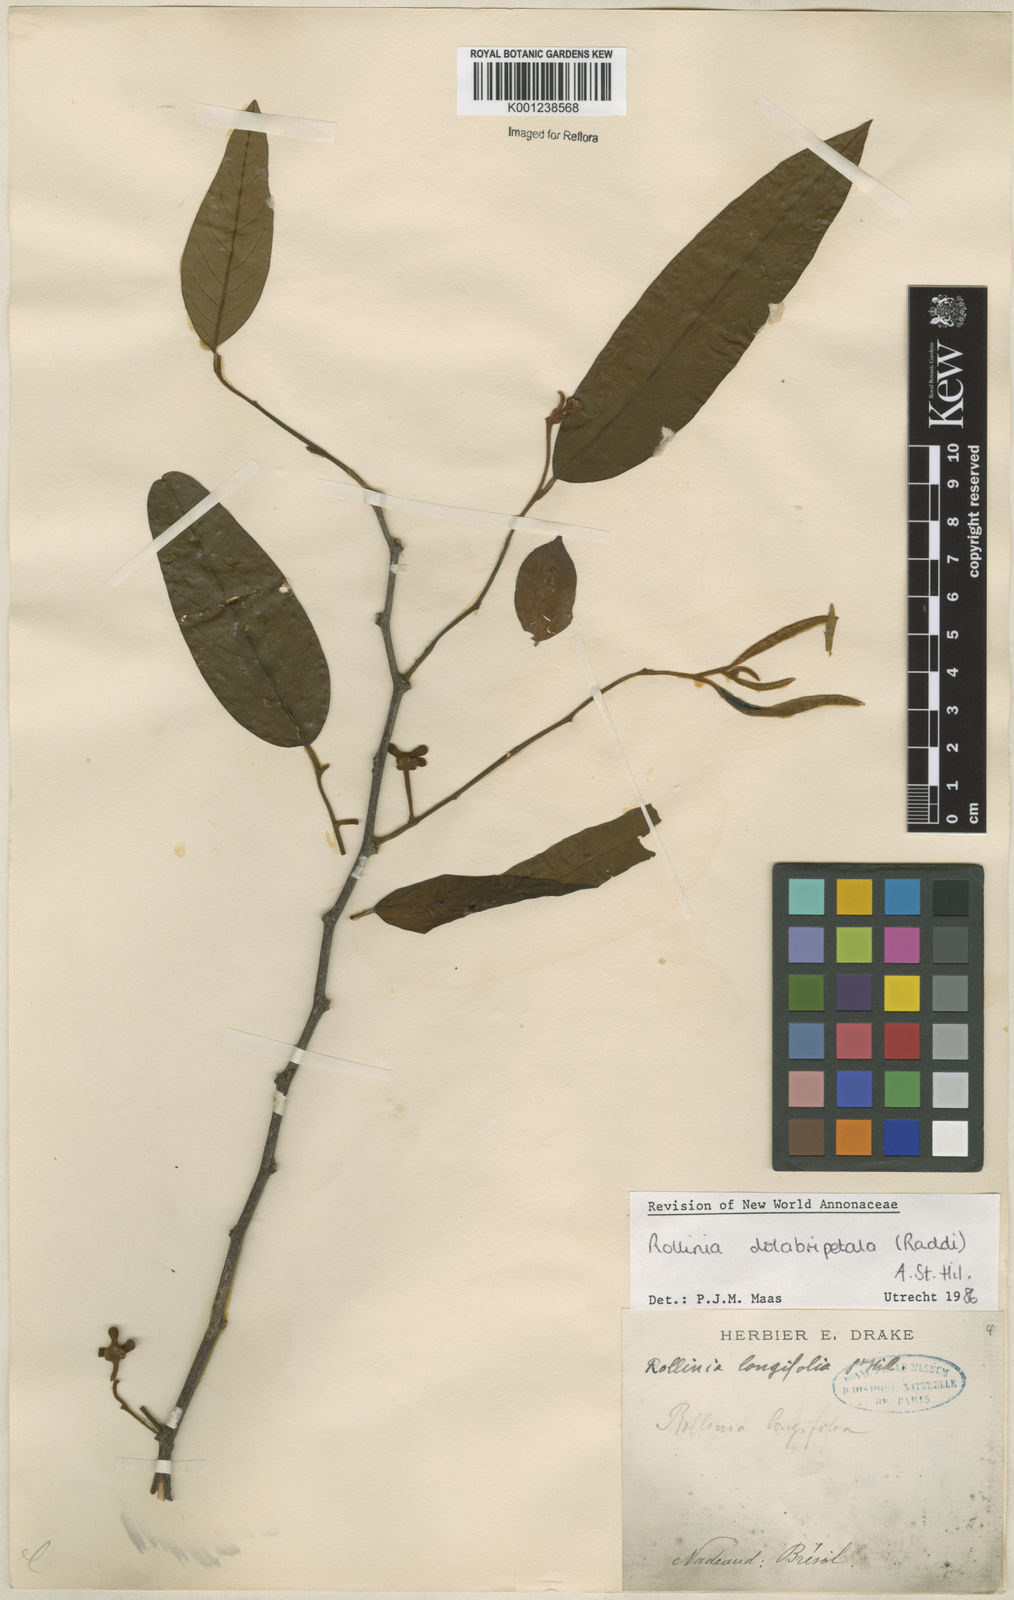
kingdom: Plantae
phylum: Tracheophyta
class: Magnoliopsida
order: Magnoliales
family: Annonaceae
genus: Annona
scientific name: Annona
